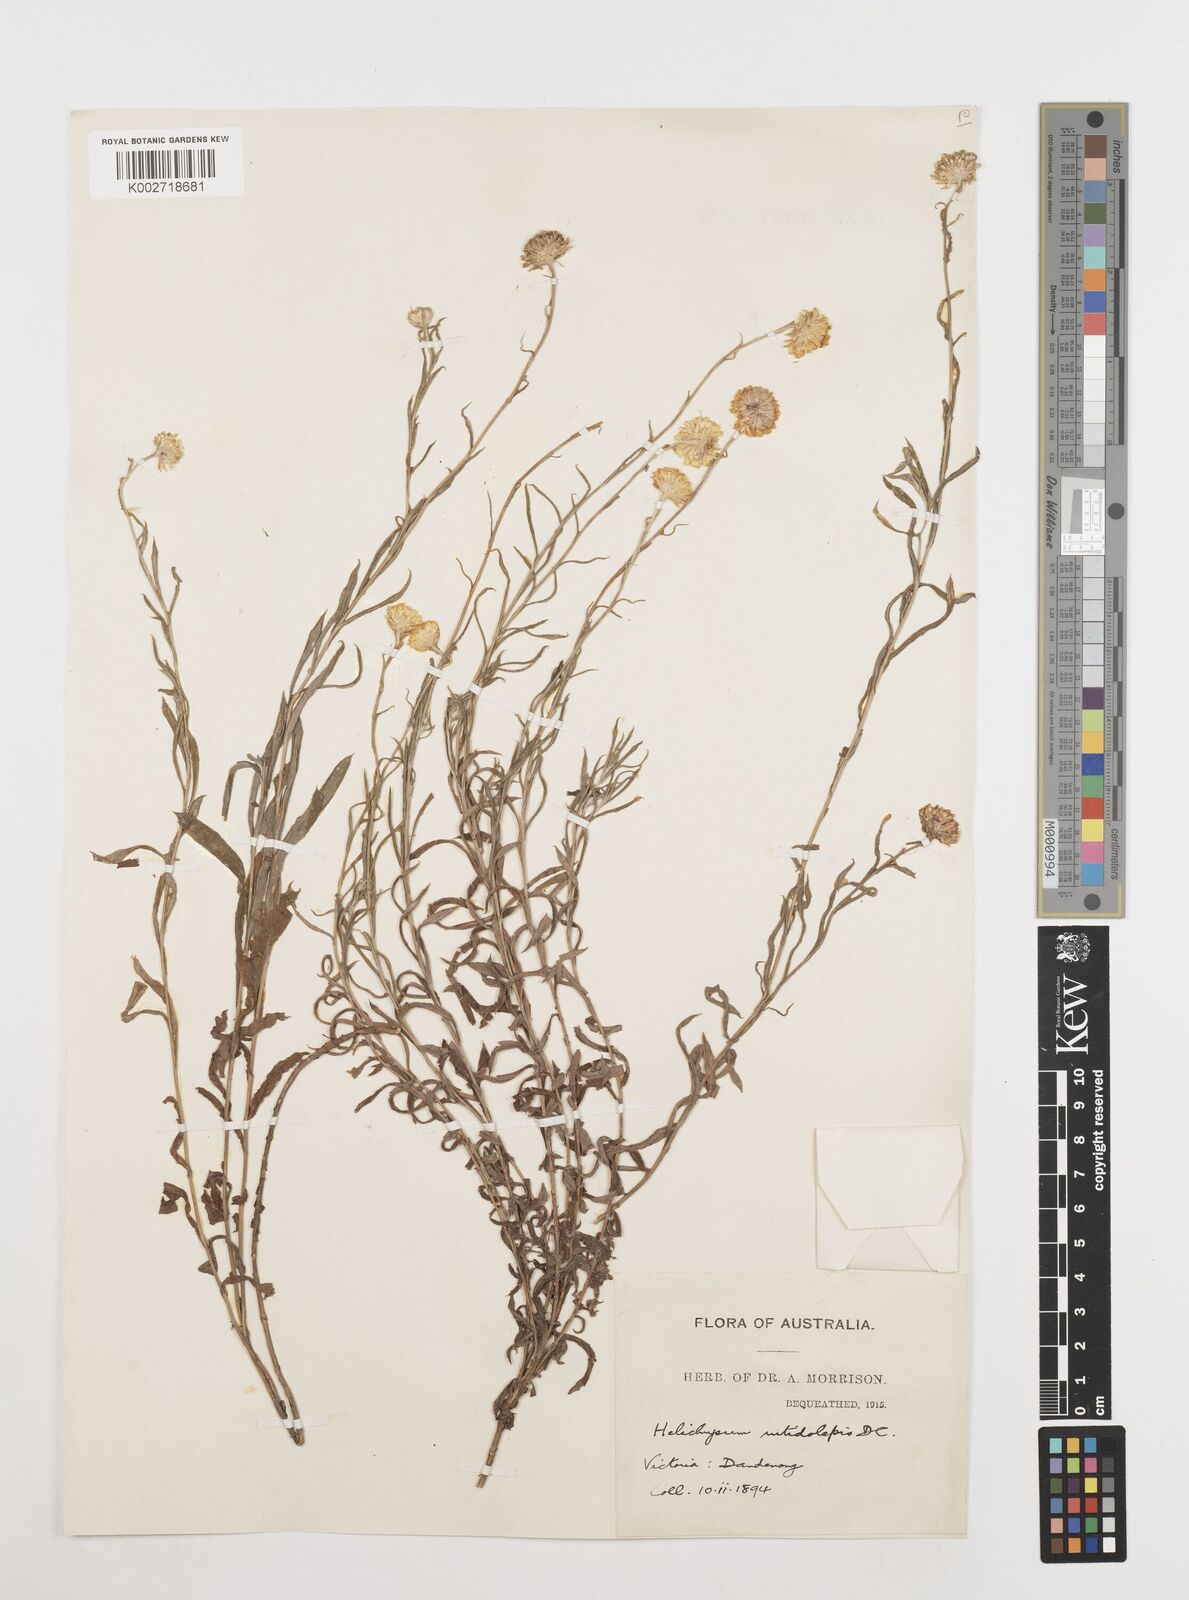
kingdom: Plantae
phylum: Tracheophyta
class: Magnoliopsida
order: Asterales
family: Asteraceae
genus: Coronidium
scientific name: Coronidium rutidolepis
